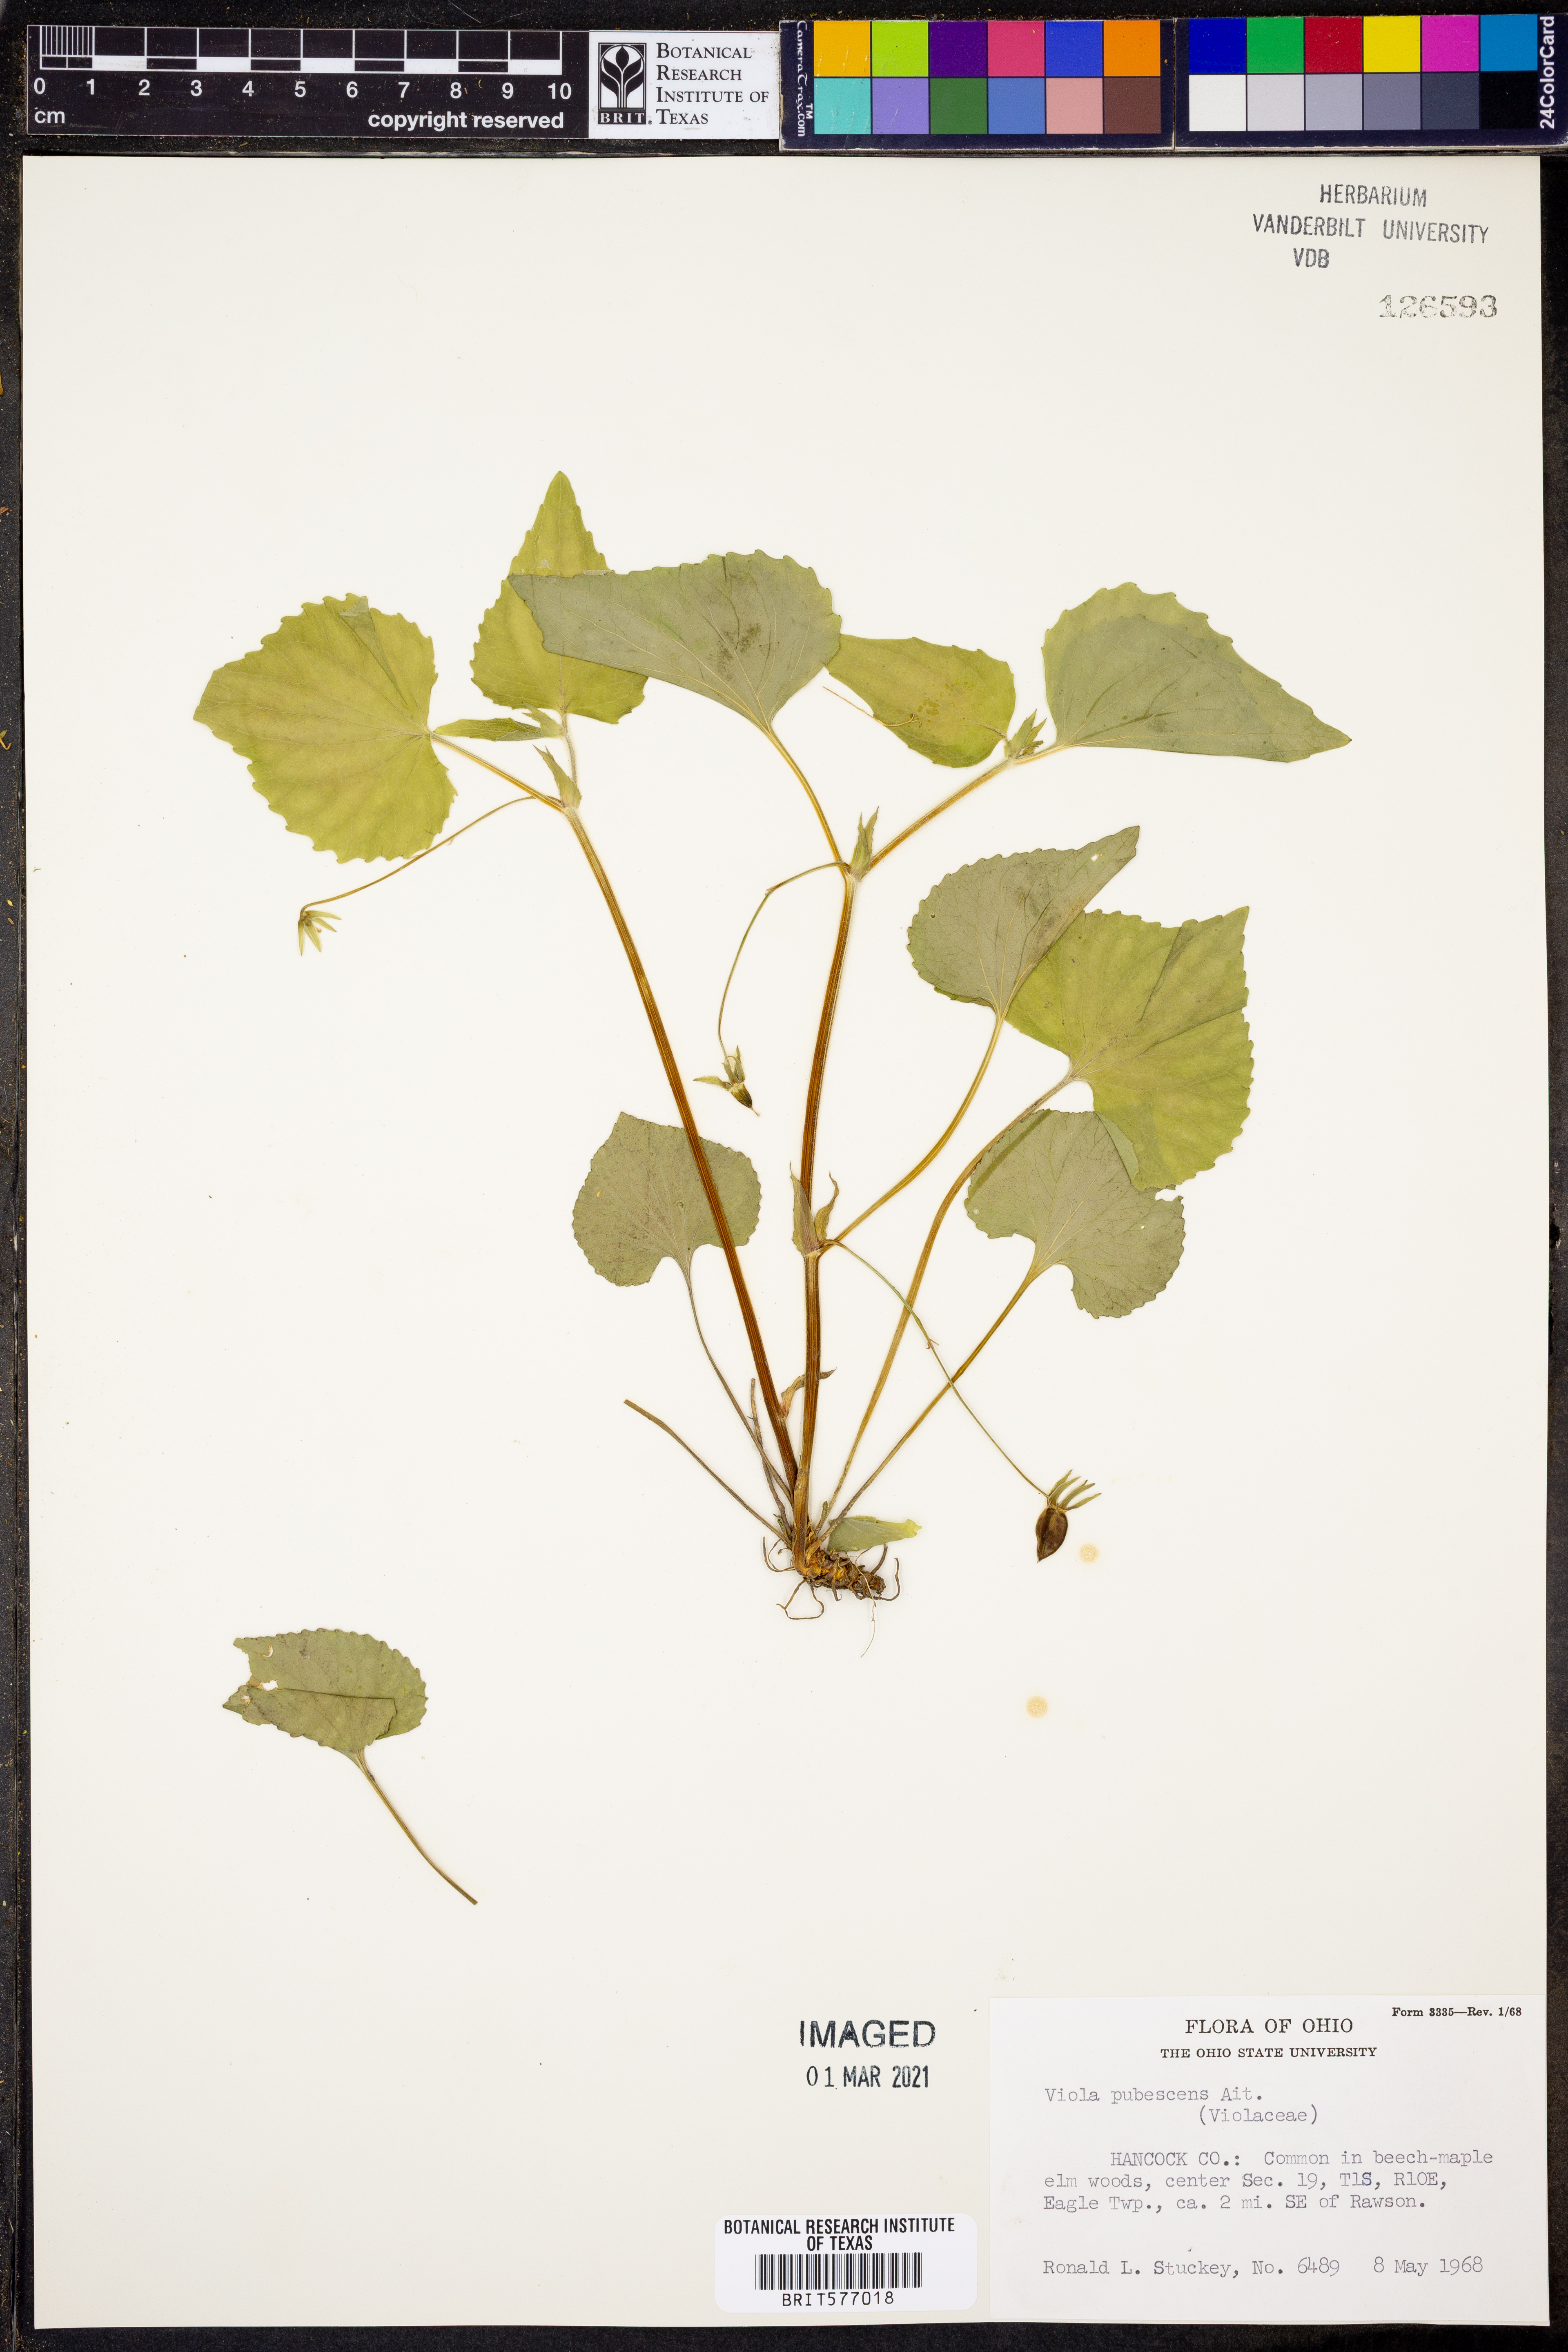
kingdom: Plantae
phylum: Tracheophyta
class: Magnoliopsida
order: Malpighiales
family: Violaceae
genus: Viola
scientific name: Viola pubescens
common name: Yellow forest violet
